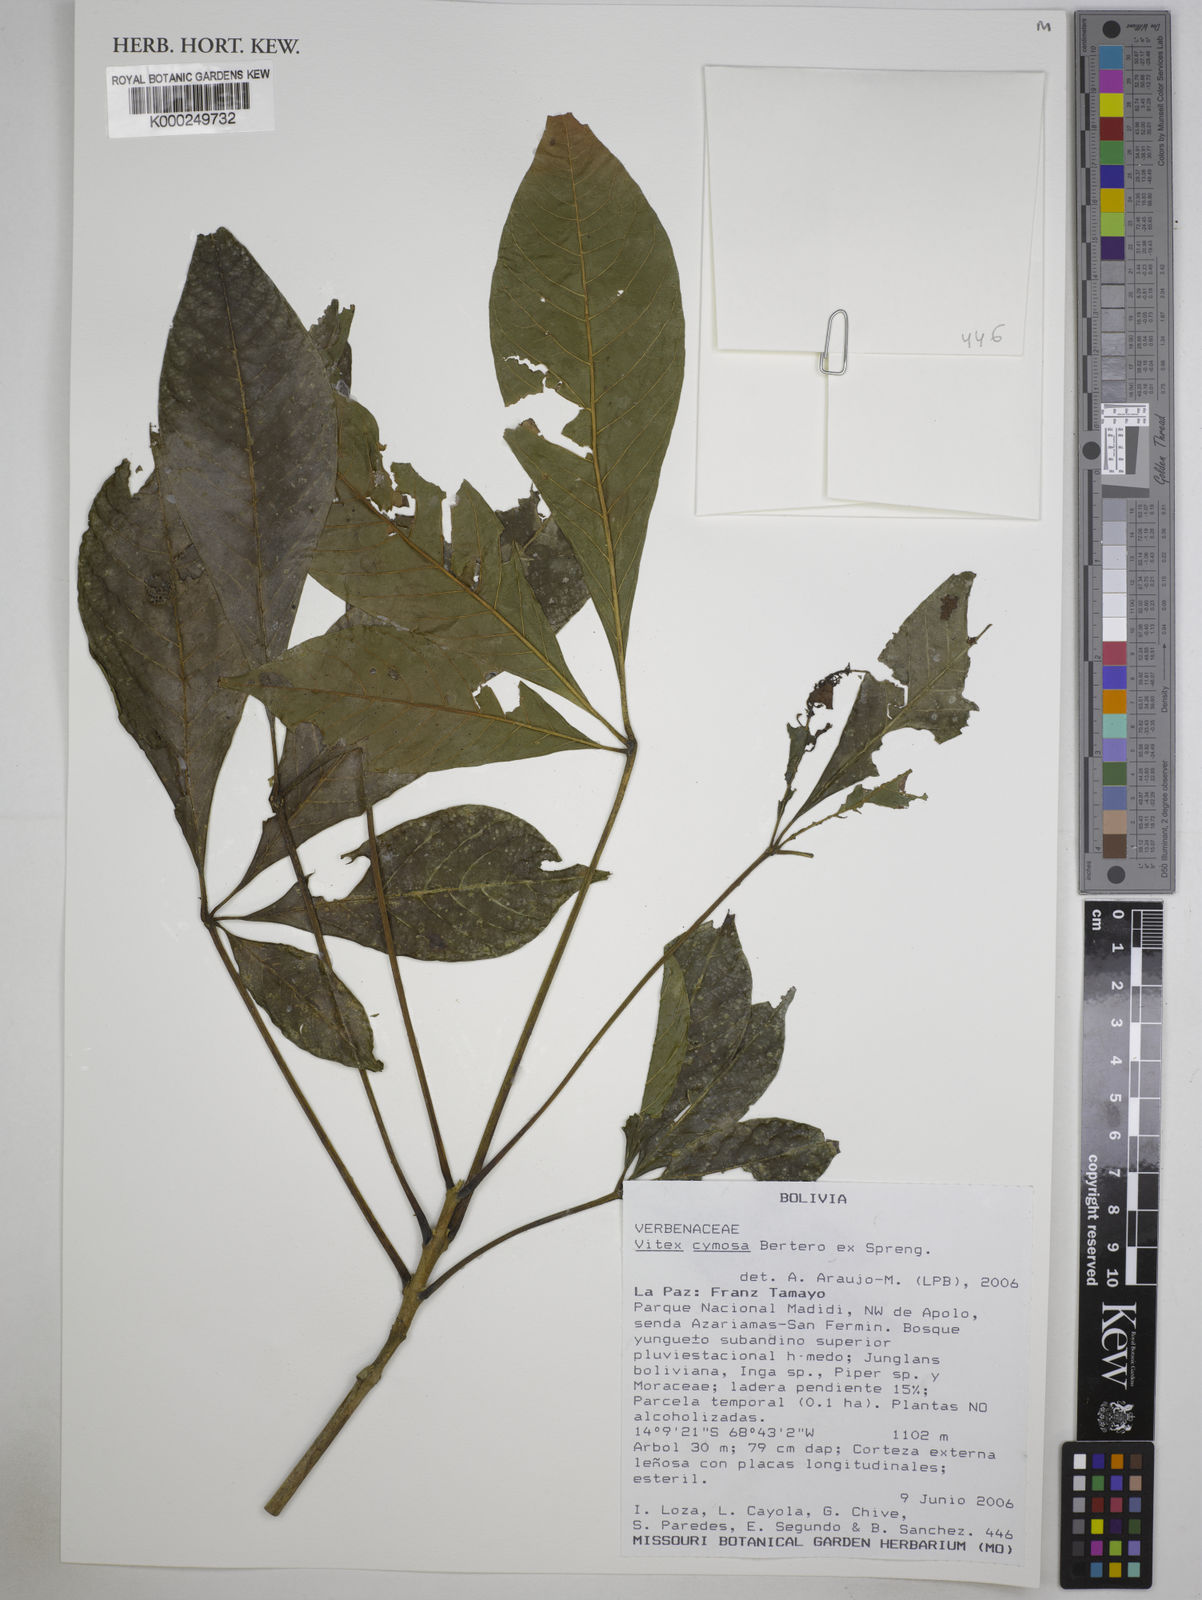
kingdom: Plantae
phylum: Tracheophyta
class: Magnoliopsida
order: Lamiales
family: Lamiaceae
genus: Vitex
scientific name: Vitex cymosa
